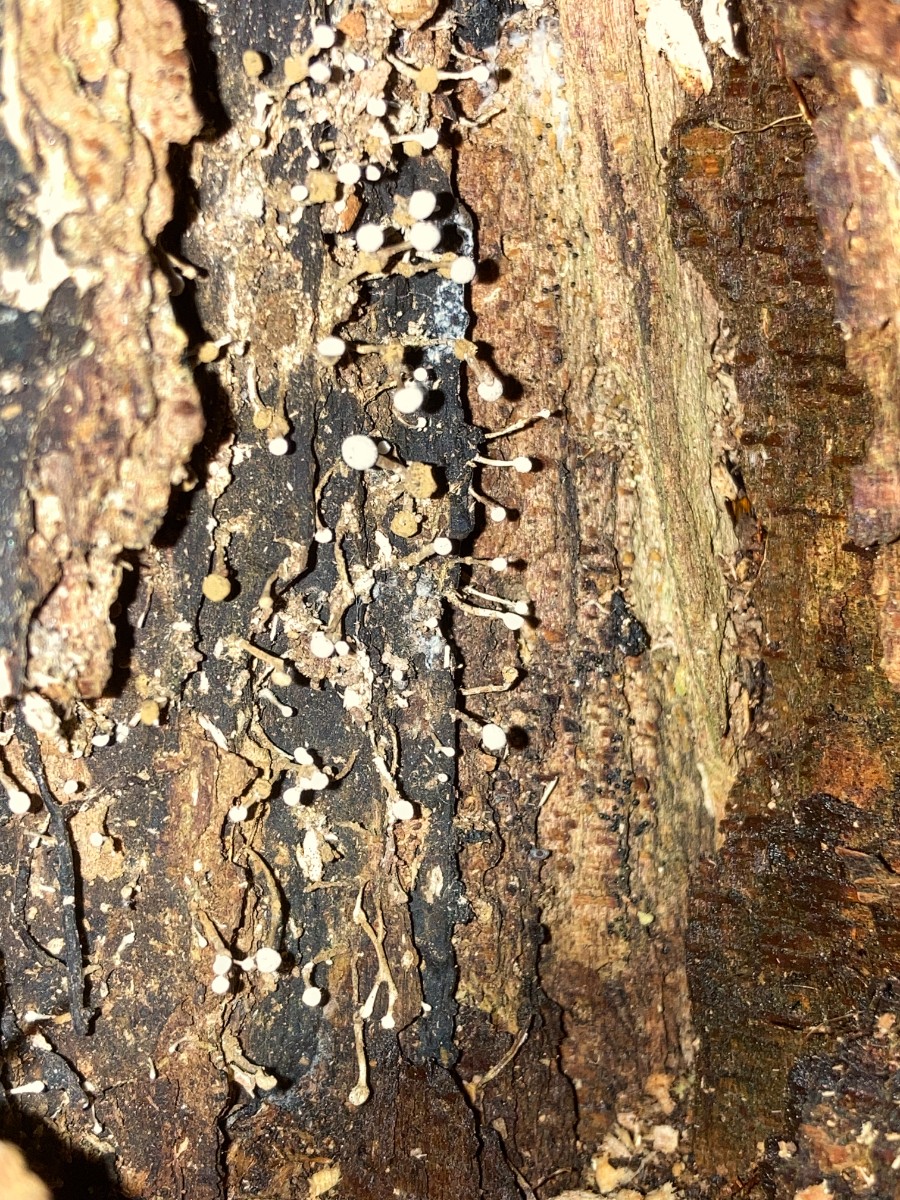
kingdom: Fungi
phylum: Basidiomycota
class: Atractiellomycetes
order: Atractiellales
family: Phleogenaceae
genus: Phleogena
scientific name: Phleogena faginea
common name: pudderkølle
